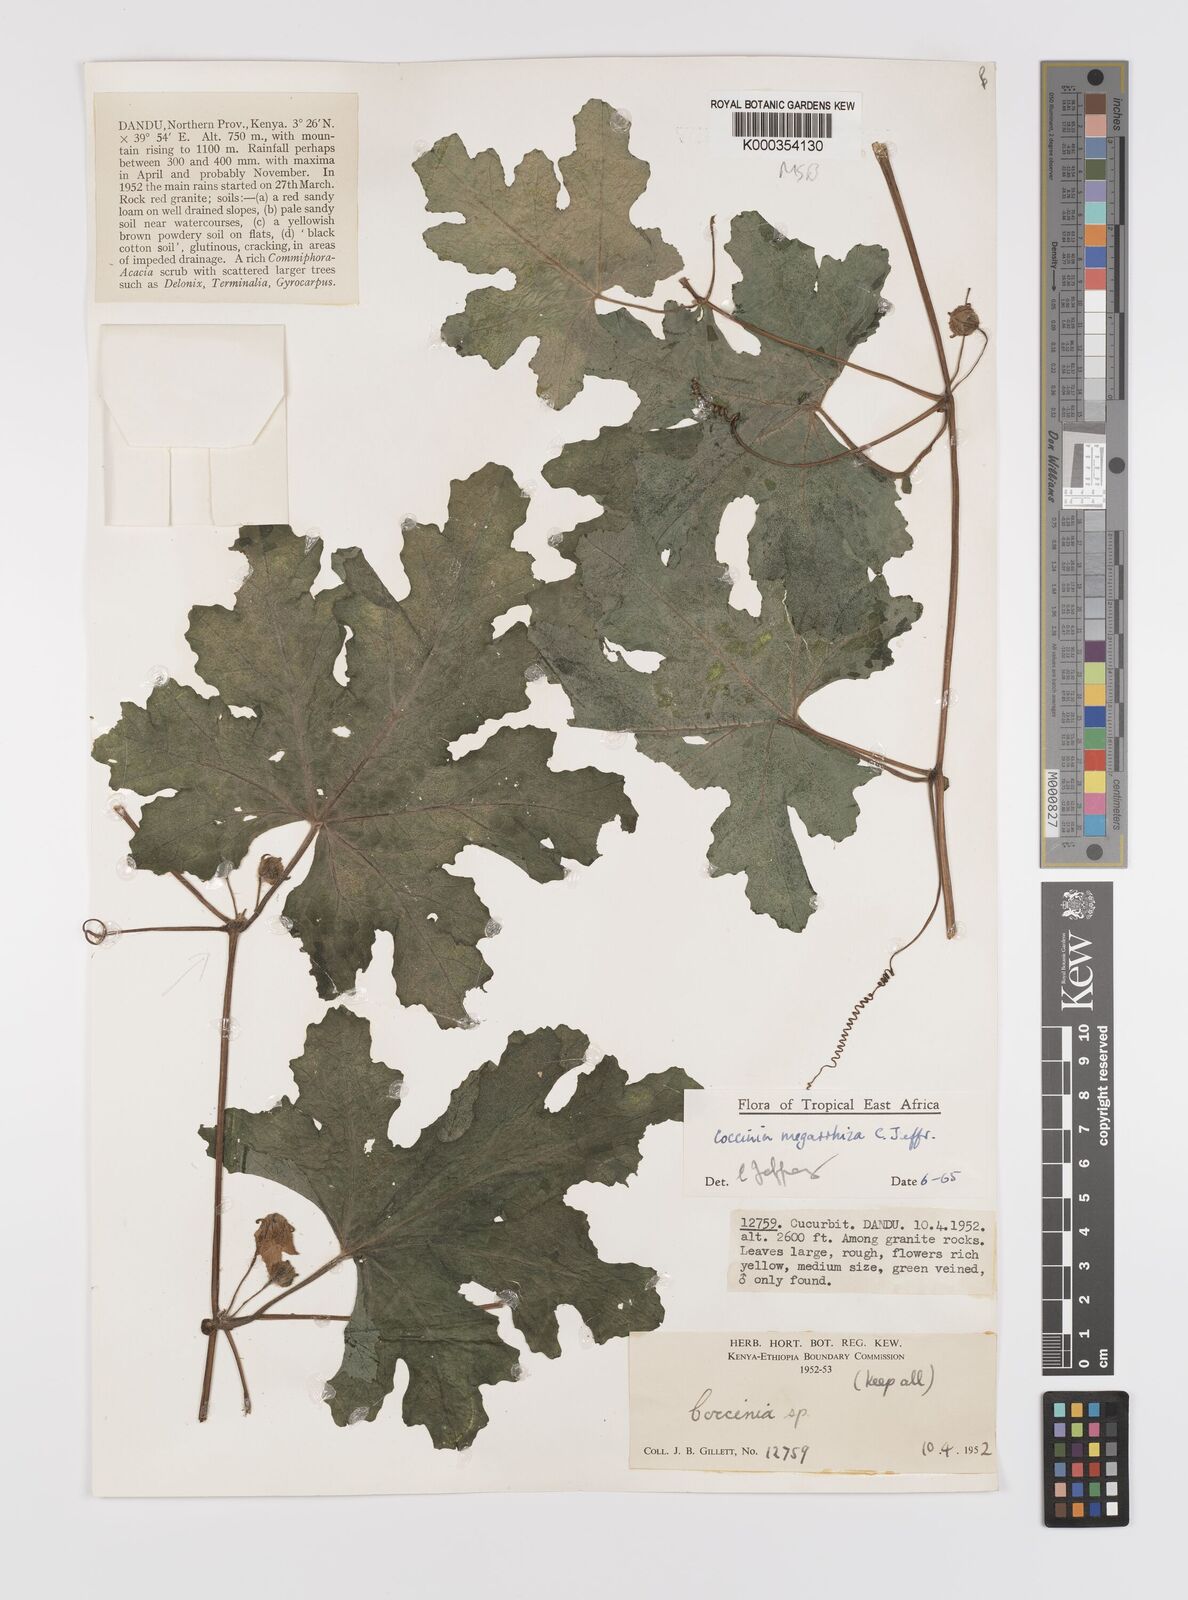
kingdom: Plantae
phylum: Tracheophyta
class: Magnoliopsida
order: Cucurbitales
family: Cucurbitaceae
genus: Coccinia
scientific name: Coccinia megarrhiza
